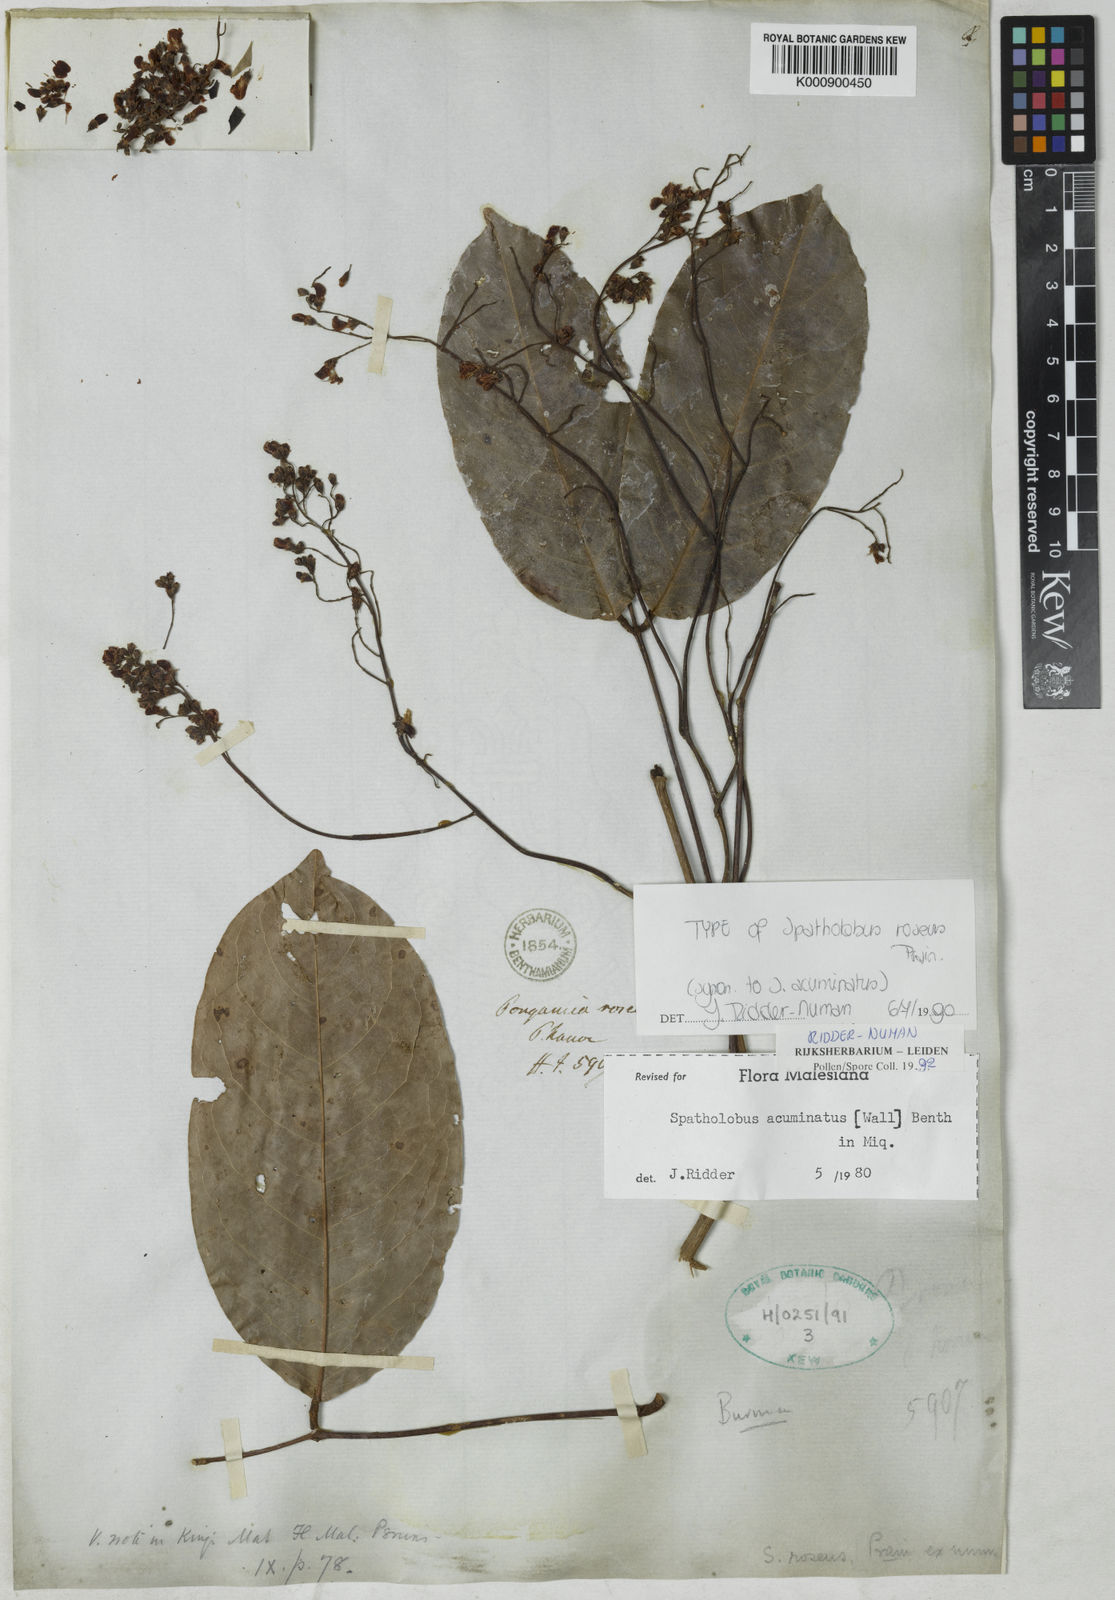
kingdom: Plantae
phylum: Tracheophyta
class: Magnoliopsida
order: Fabales
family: Fabaceae
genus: Spatholobus
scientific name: Spatholobus
